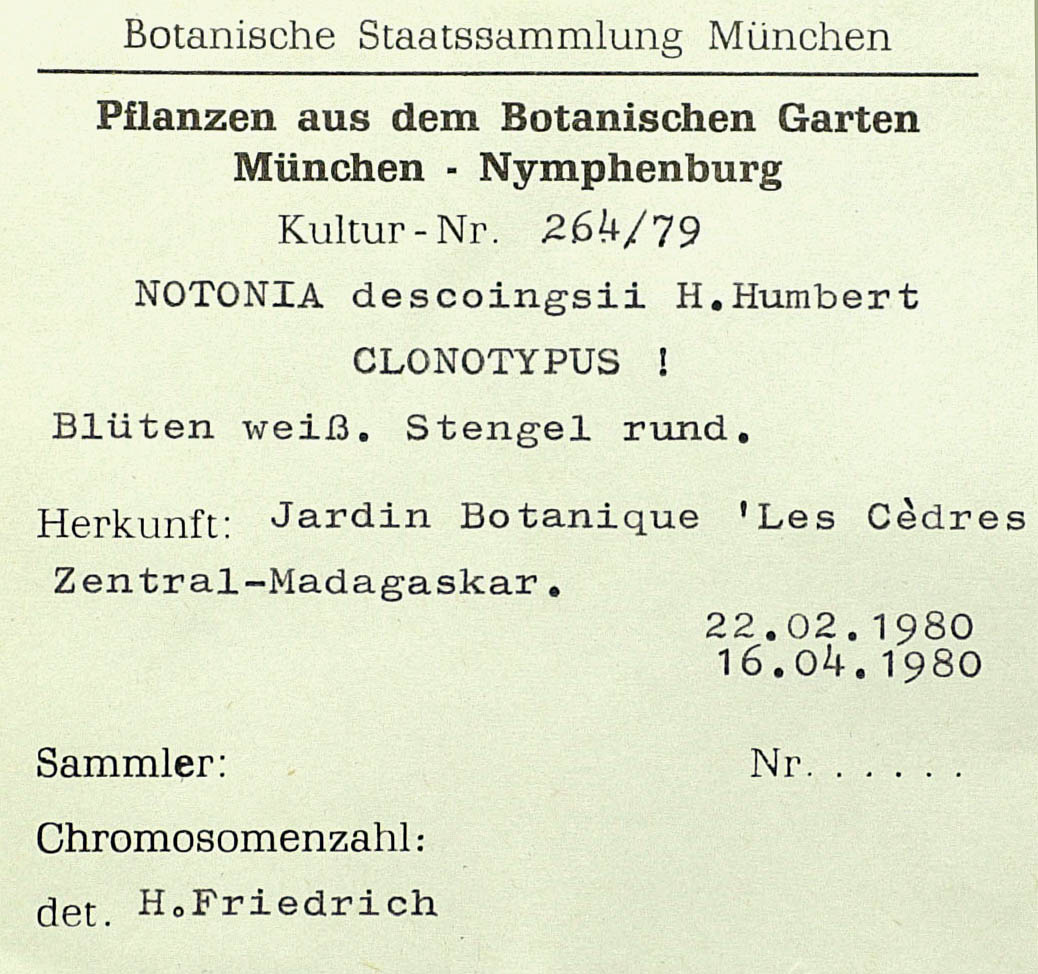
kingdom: Plantae
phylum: Tracheophyta
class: Magnoliopsida
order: Asterales
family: Asteraceae
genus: Kleinia
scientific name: Kleinia descoingsii
